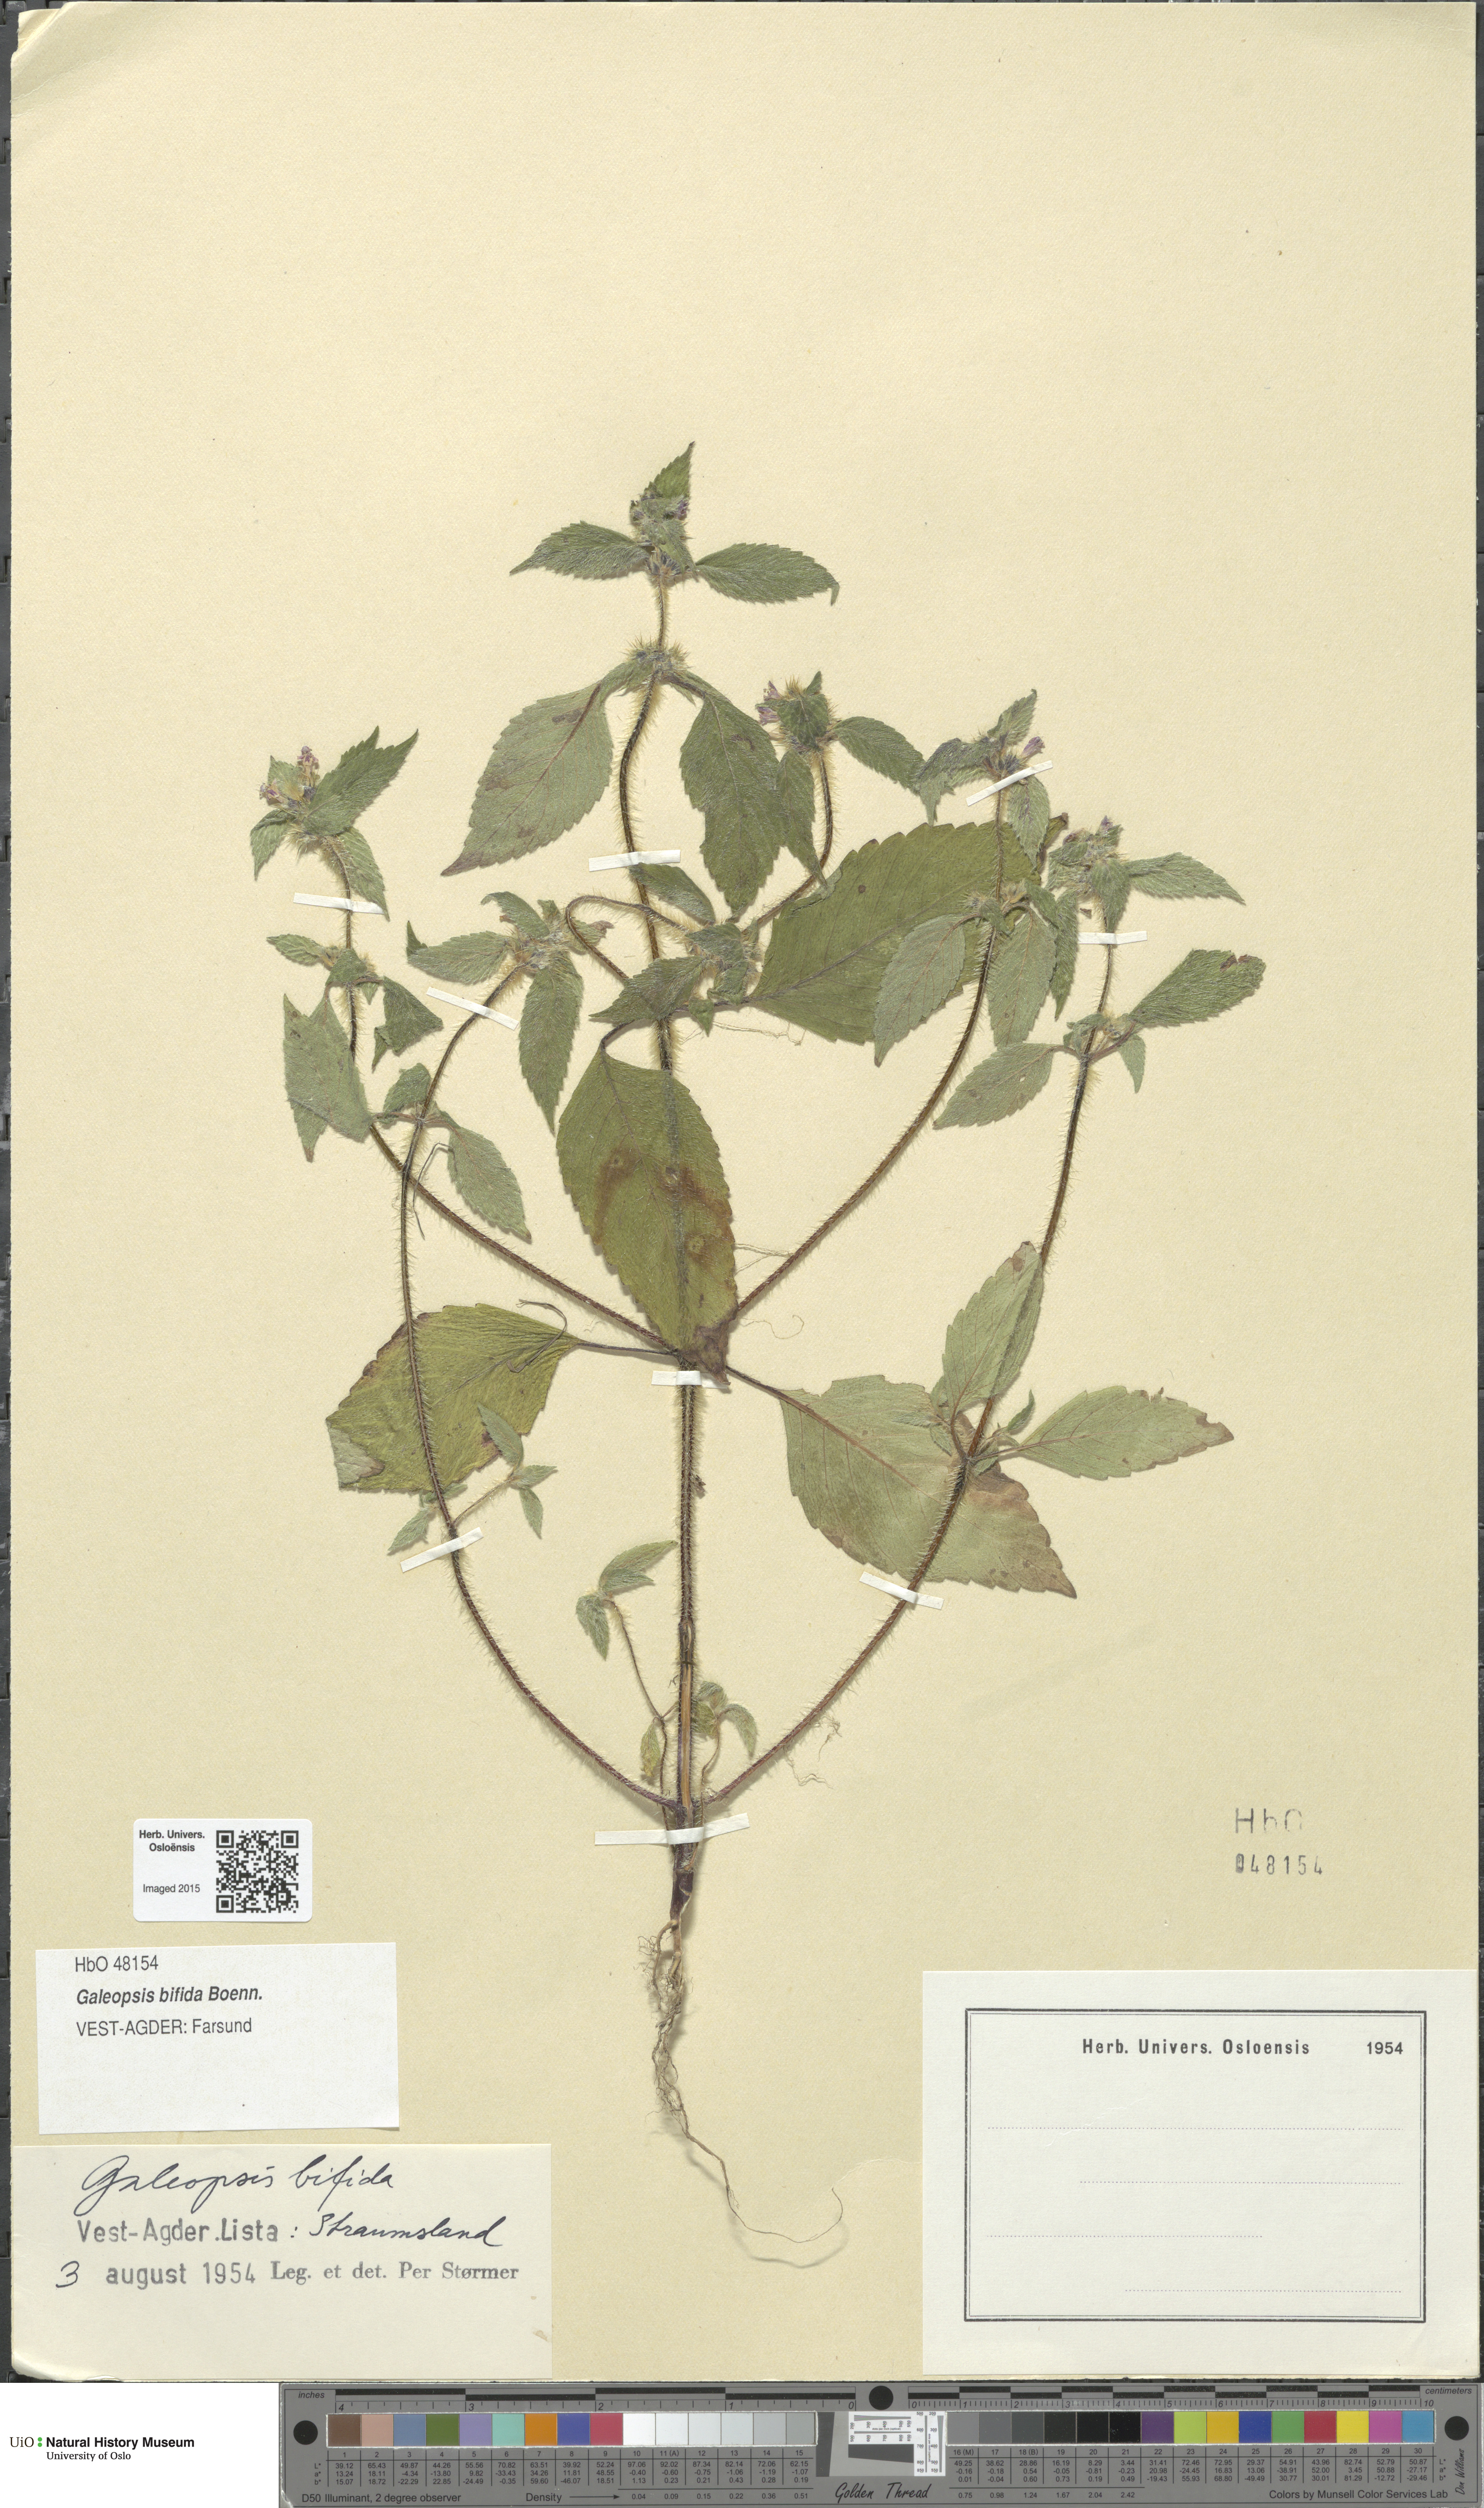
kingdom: Plantae
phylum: Tracheophyta
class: Magnoliopsida
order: Lamiales
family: Lamiaceae
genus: Galeopsis
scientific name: Galeopsis bifida
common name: Bifid hemp-nettle
